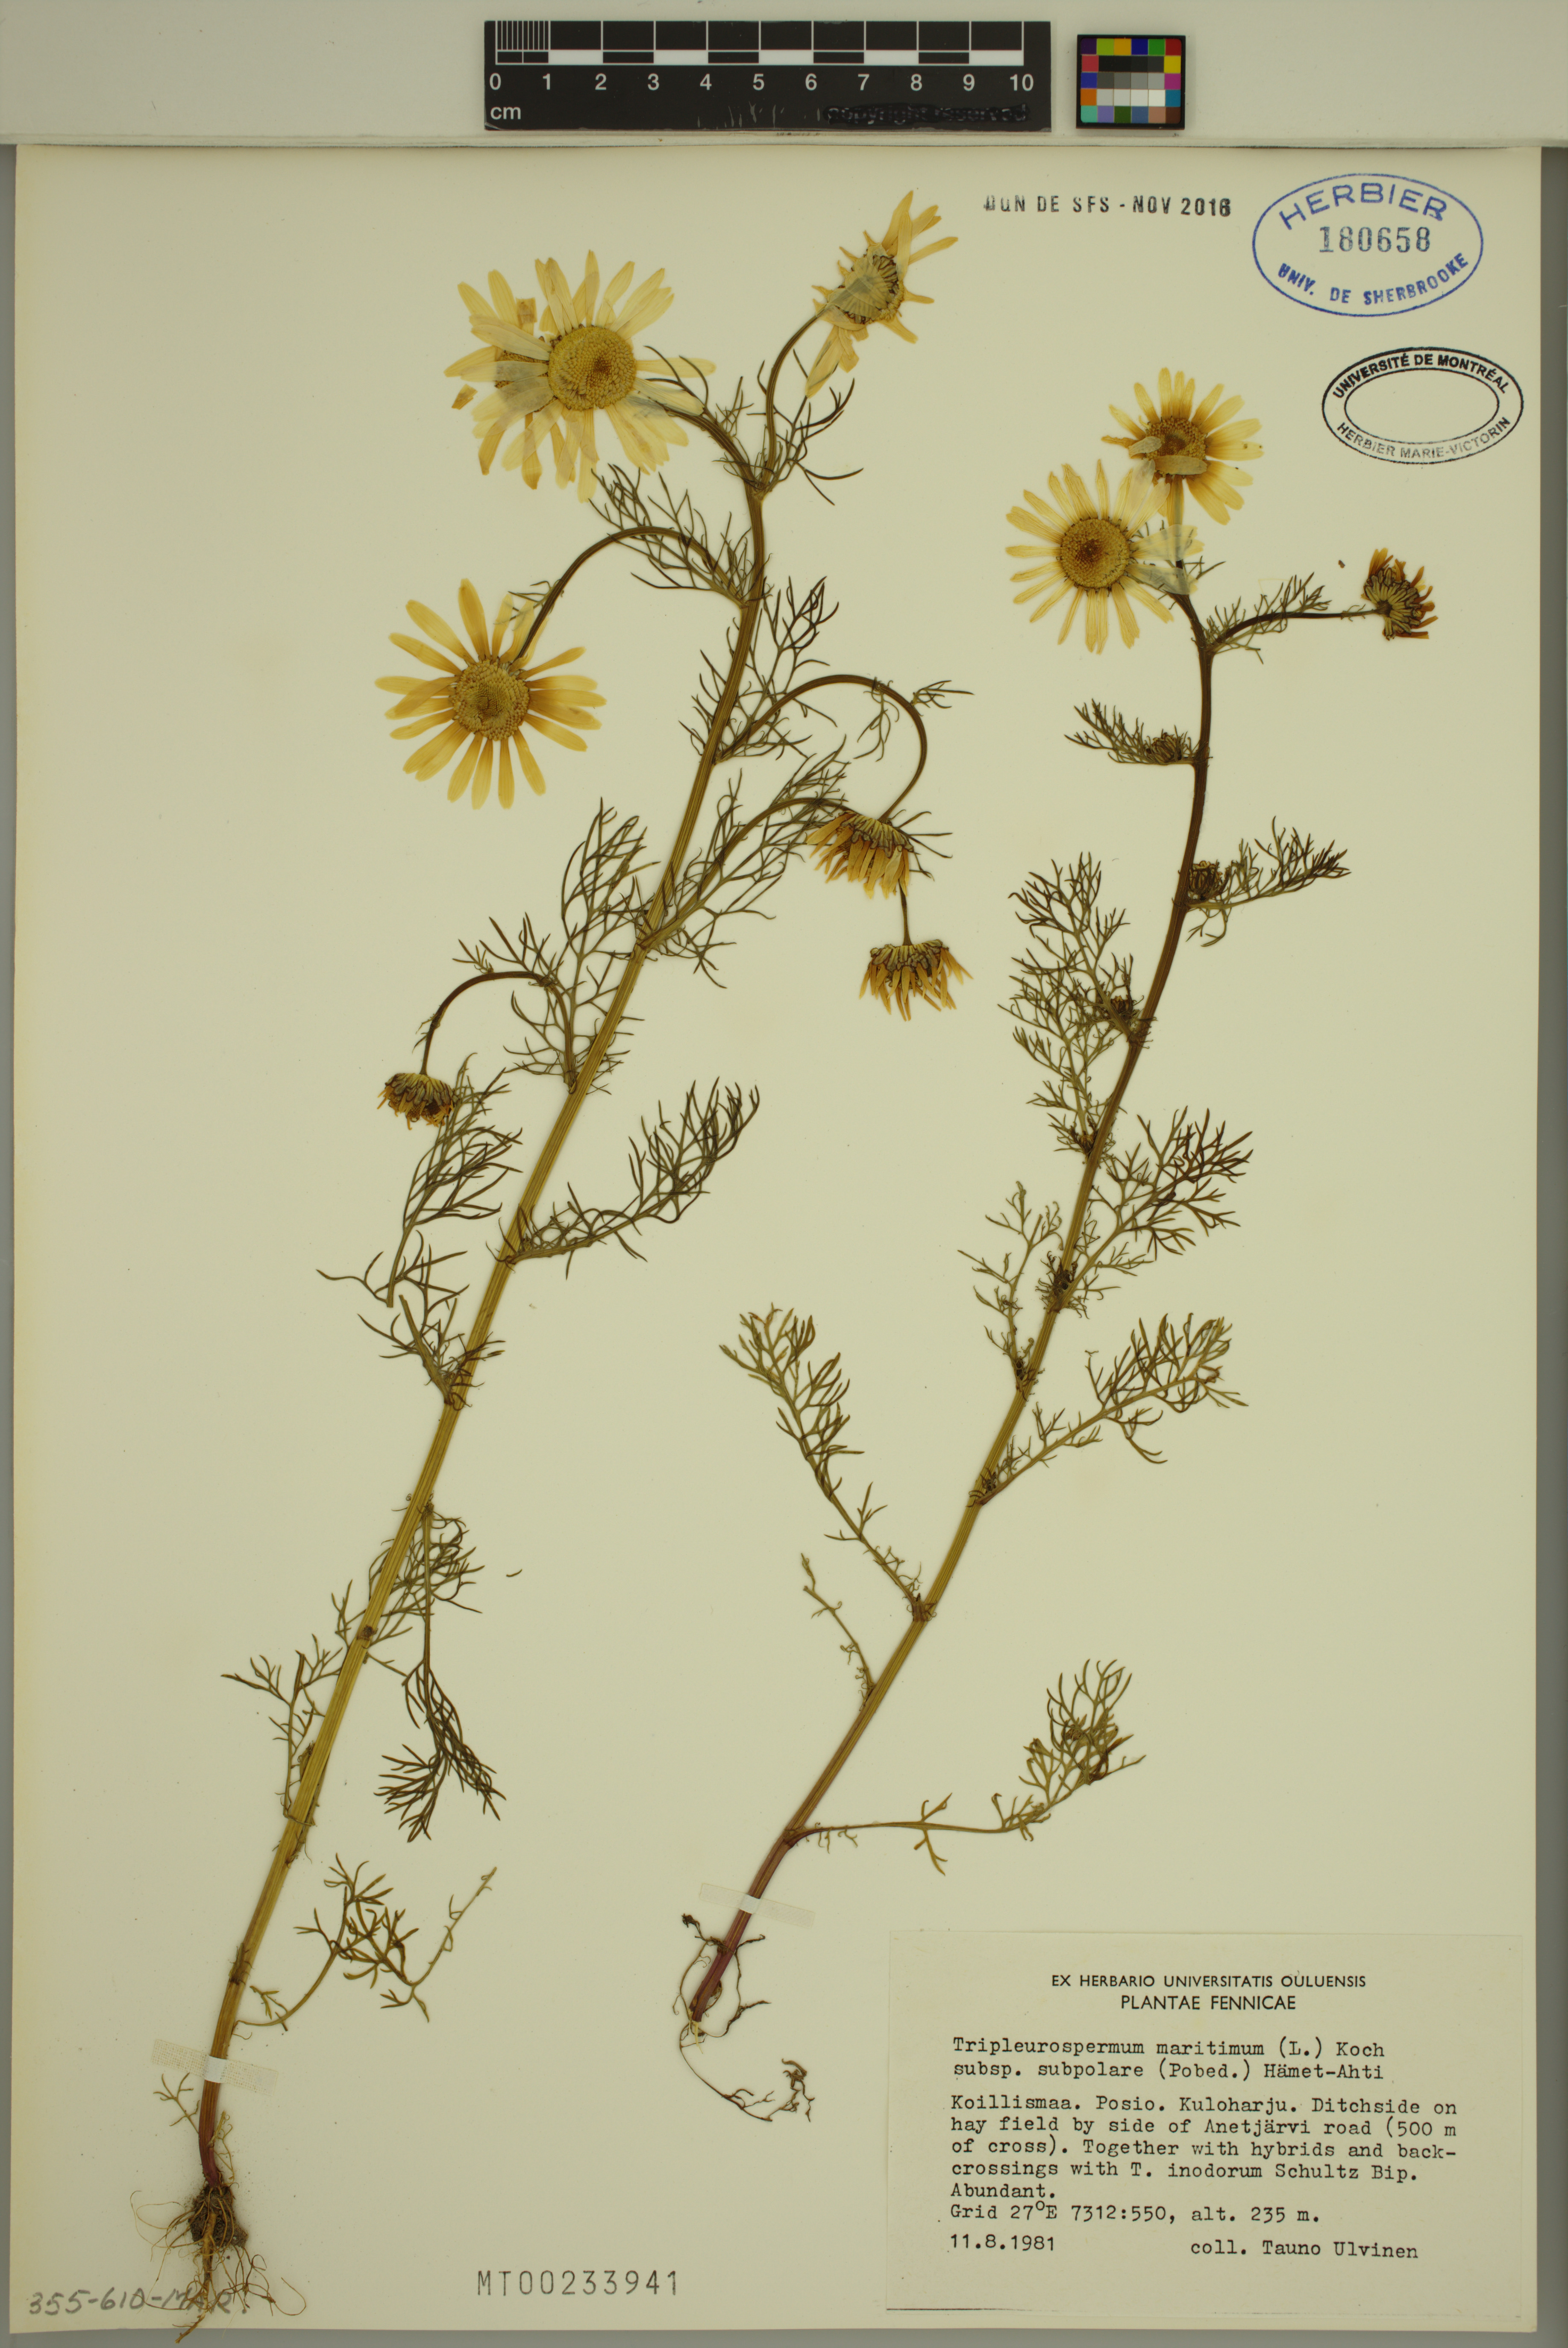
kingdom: Plantae
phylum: Tracheophyta
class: Magnoliopsida
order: Asterales
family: Asteraceae
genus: Tripleurospermum
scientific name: Tripleurospermum subpolare
